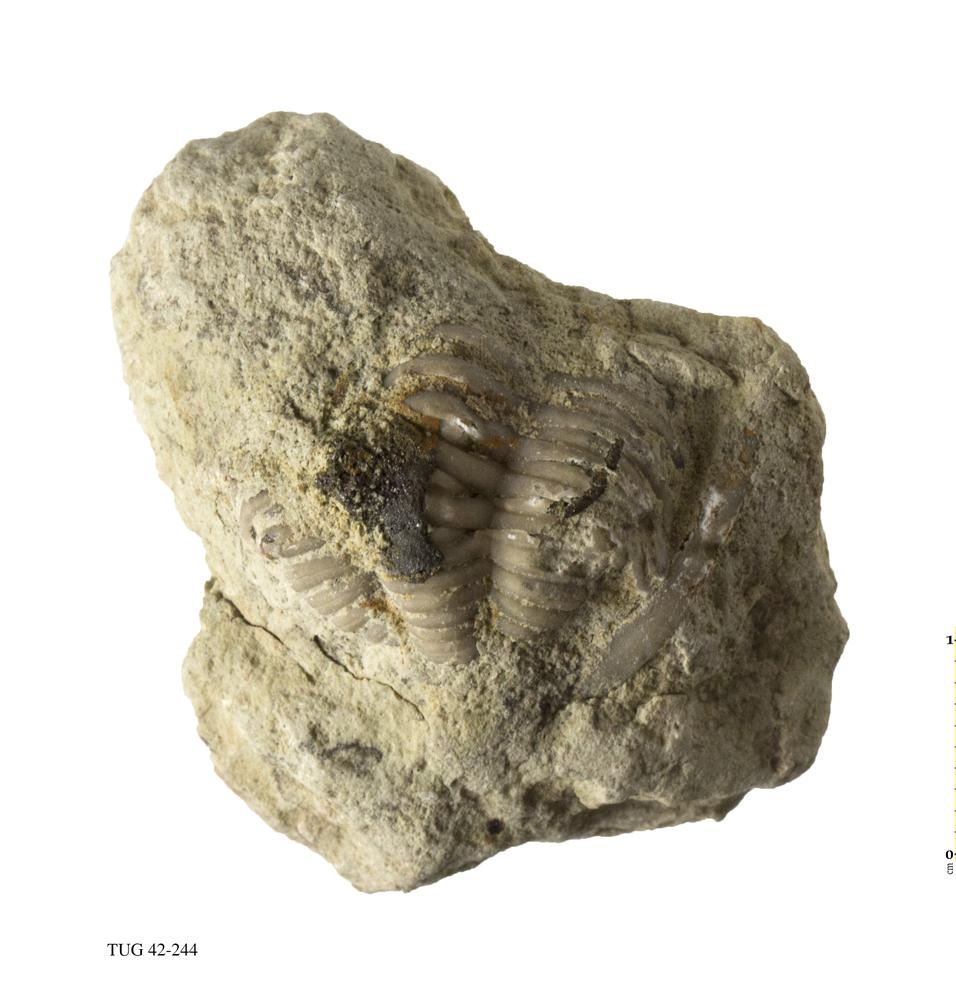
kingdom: Animalia
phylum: Arthropoda
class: Trilobita
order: Phacopida
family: Phacopidae
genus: Phacops
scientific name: Phacops
